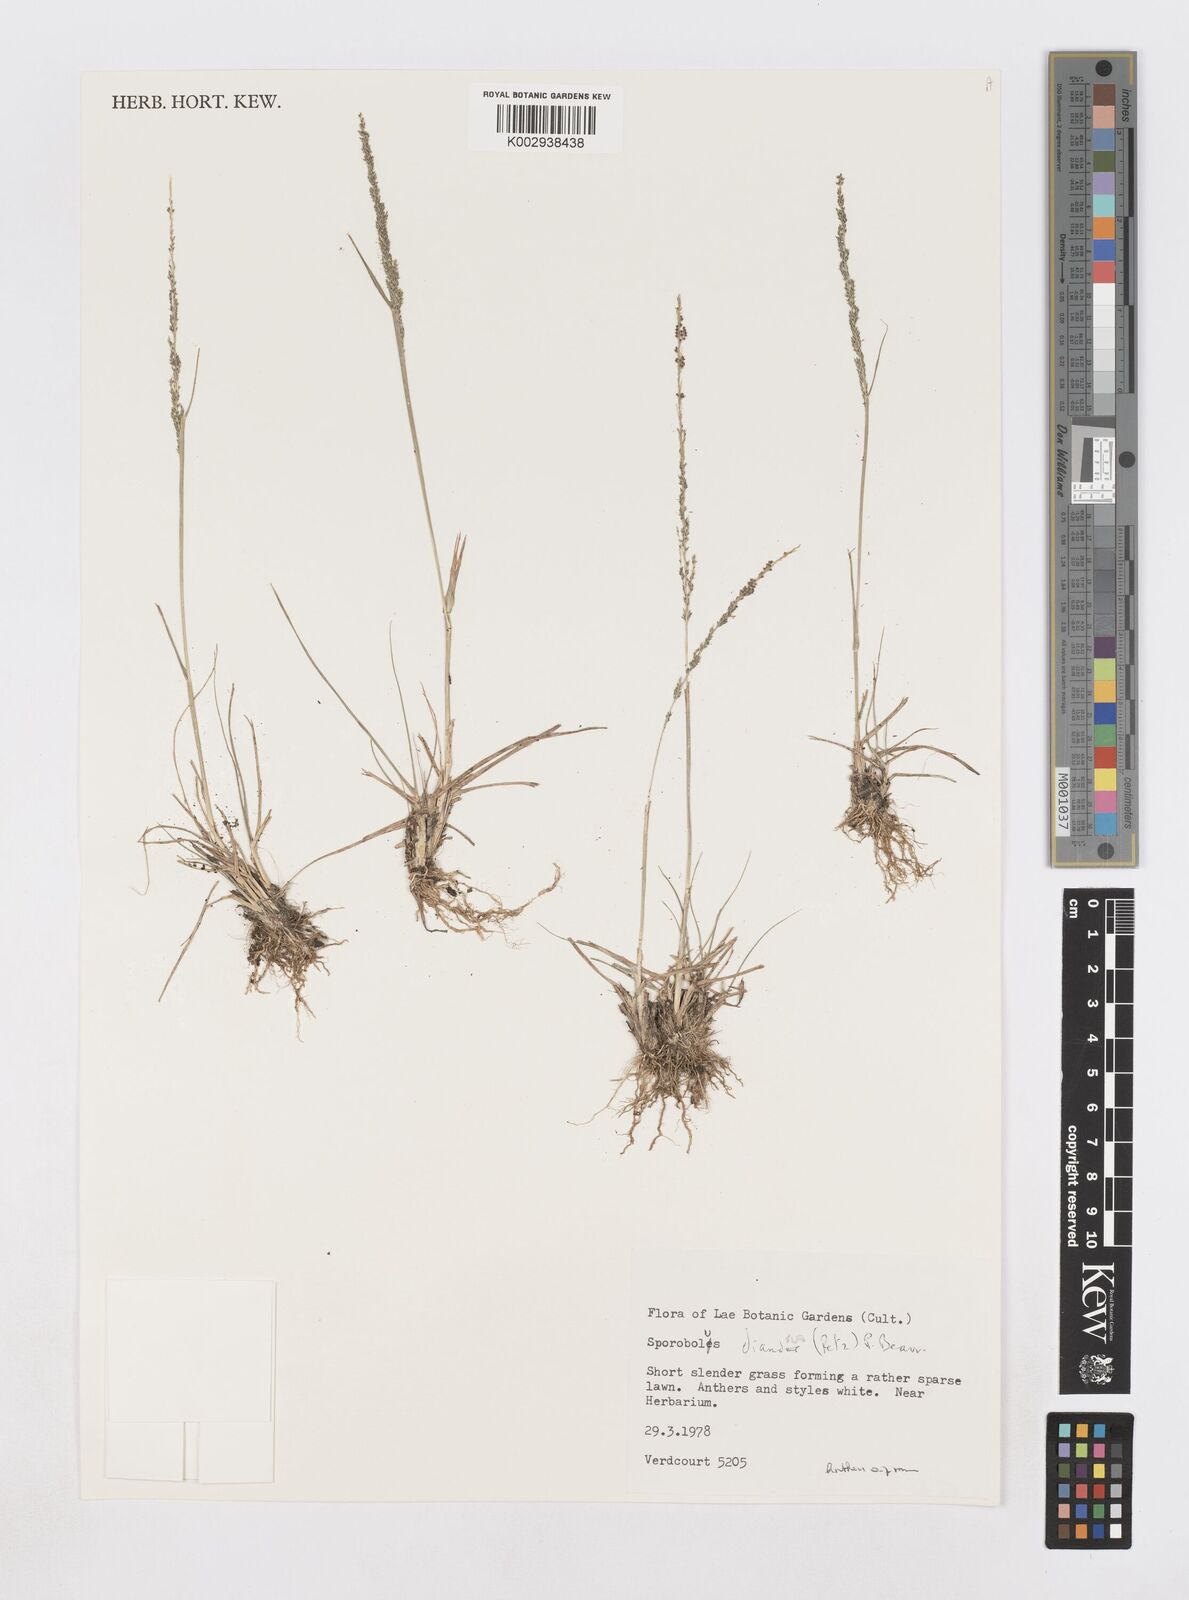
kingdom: Plantae
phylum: Tracheophyta
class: Liliopsida
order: Poales
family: Poaceae
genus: Sporobolus
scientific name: Sporobolus diandrus
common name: Tussock dropseed
